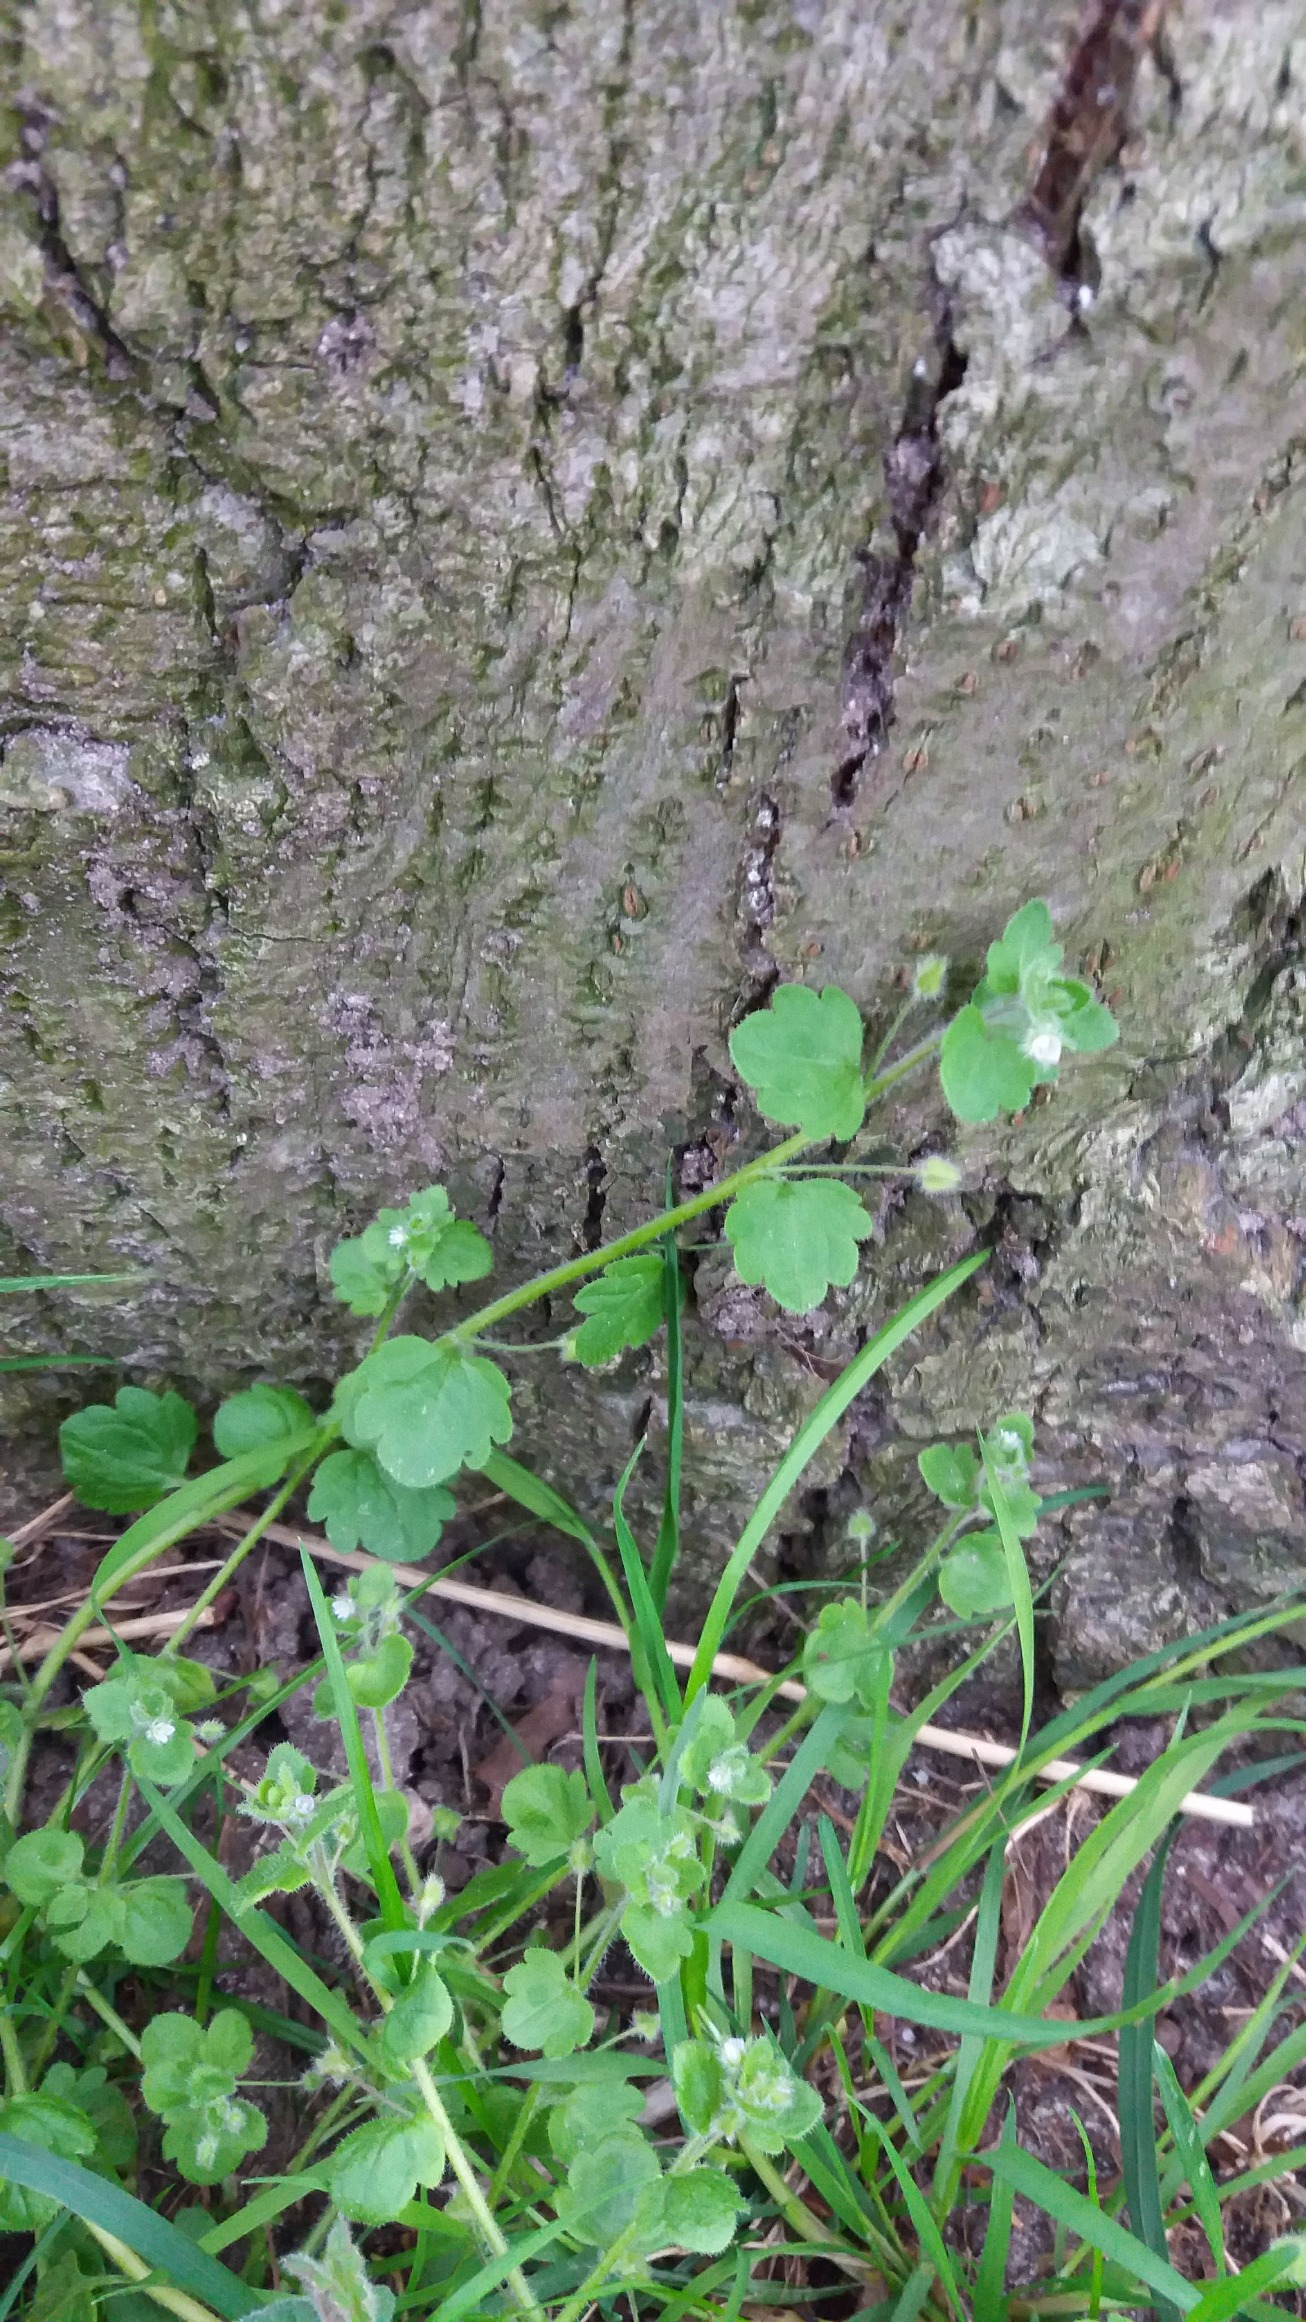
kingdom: Plantae
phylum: Tracheophyta
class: Magnoliopsida
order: Lamiales
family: Plantaginaceae
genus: Veronica
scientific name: Veronica sublobata
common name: Krat-ærenpris
